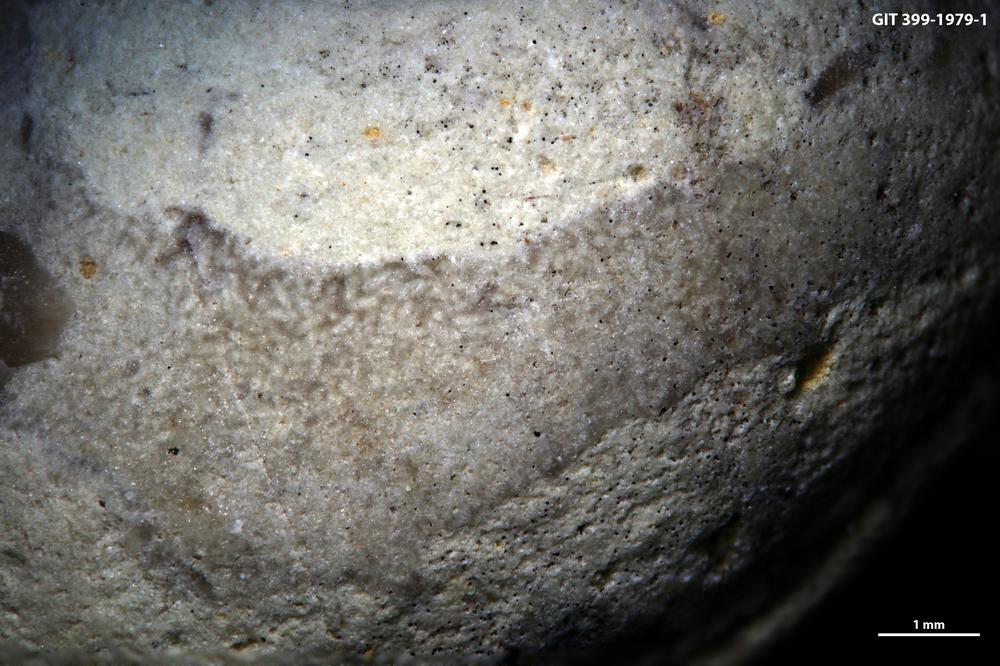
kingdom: Plantae
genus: Alcyonidiopsis
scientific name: Alcyonidiopsis longobardiae
